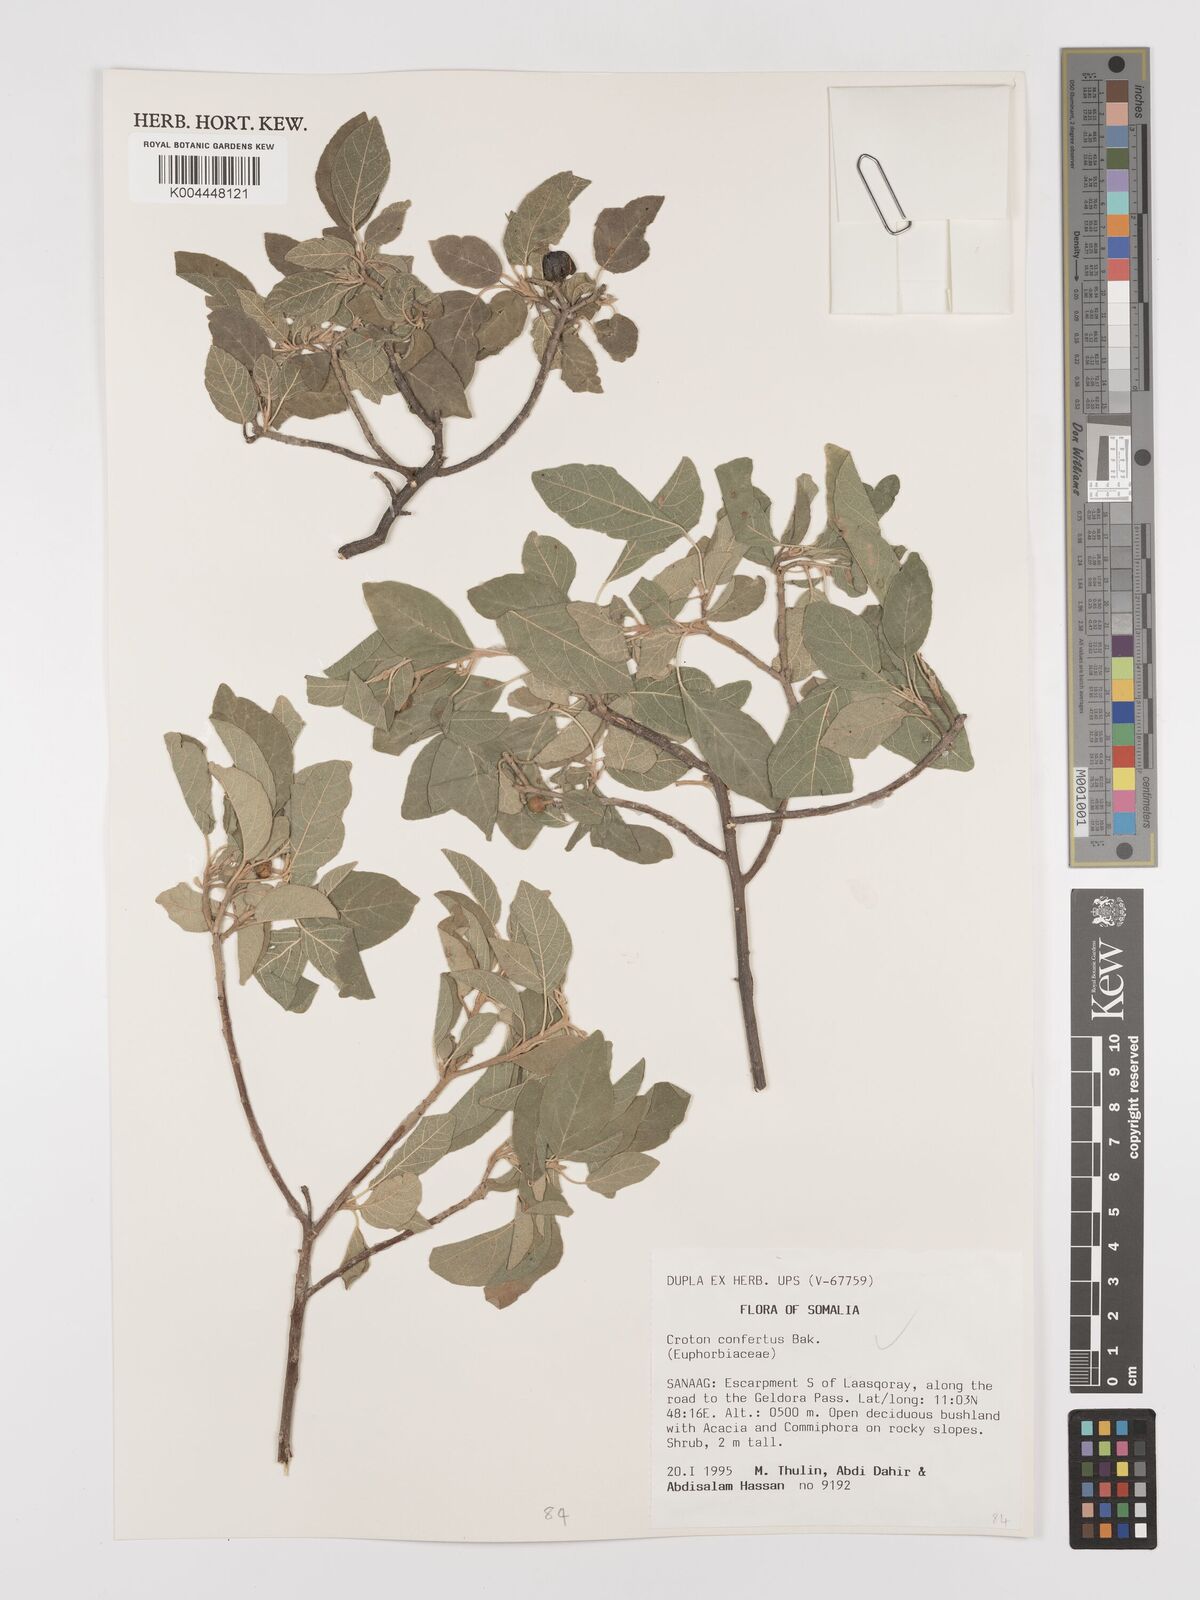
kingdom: Plantae
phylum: Tracheophyta
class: Magnoliopsida
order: Malpighiales
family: Euphorbiaceae
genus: Croton
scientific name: Croton confertus
